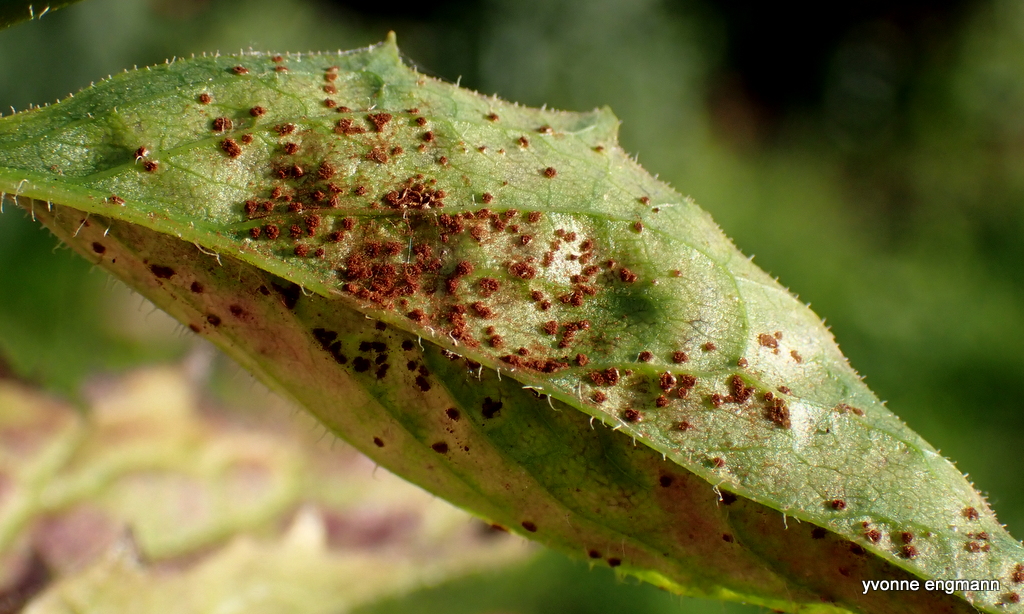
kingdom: Fungi
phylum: Basidiomycota
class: Pucciniomycetes
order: Pucciniales
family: Pucciniaceae
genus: Puccinia
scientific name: Puccinia lapsanae
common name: Nipplewort rust
